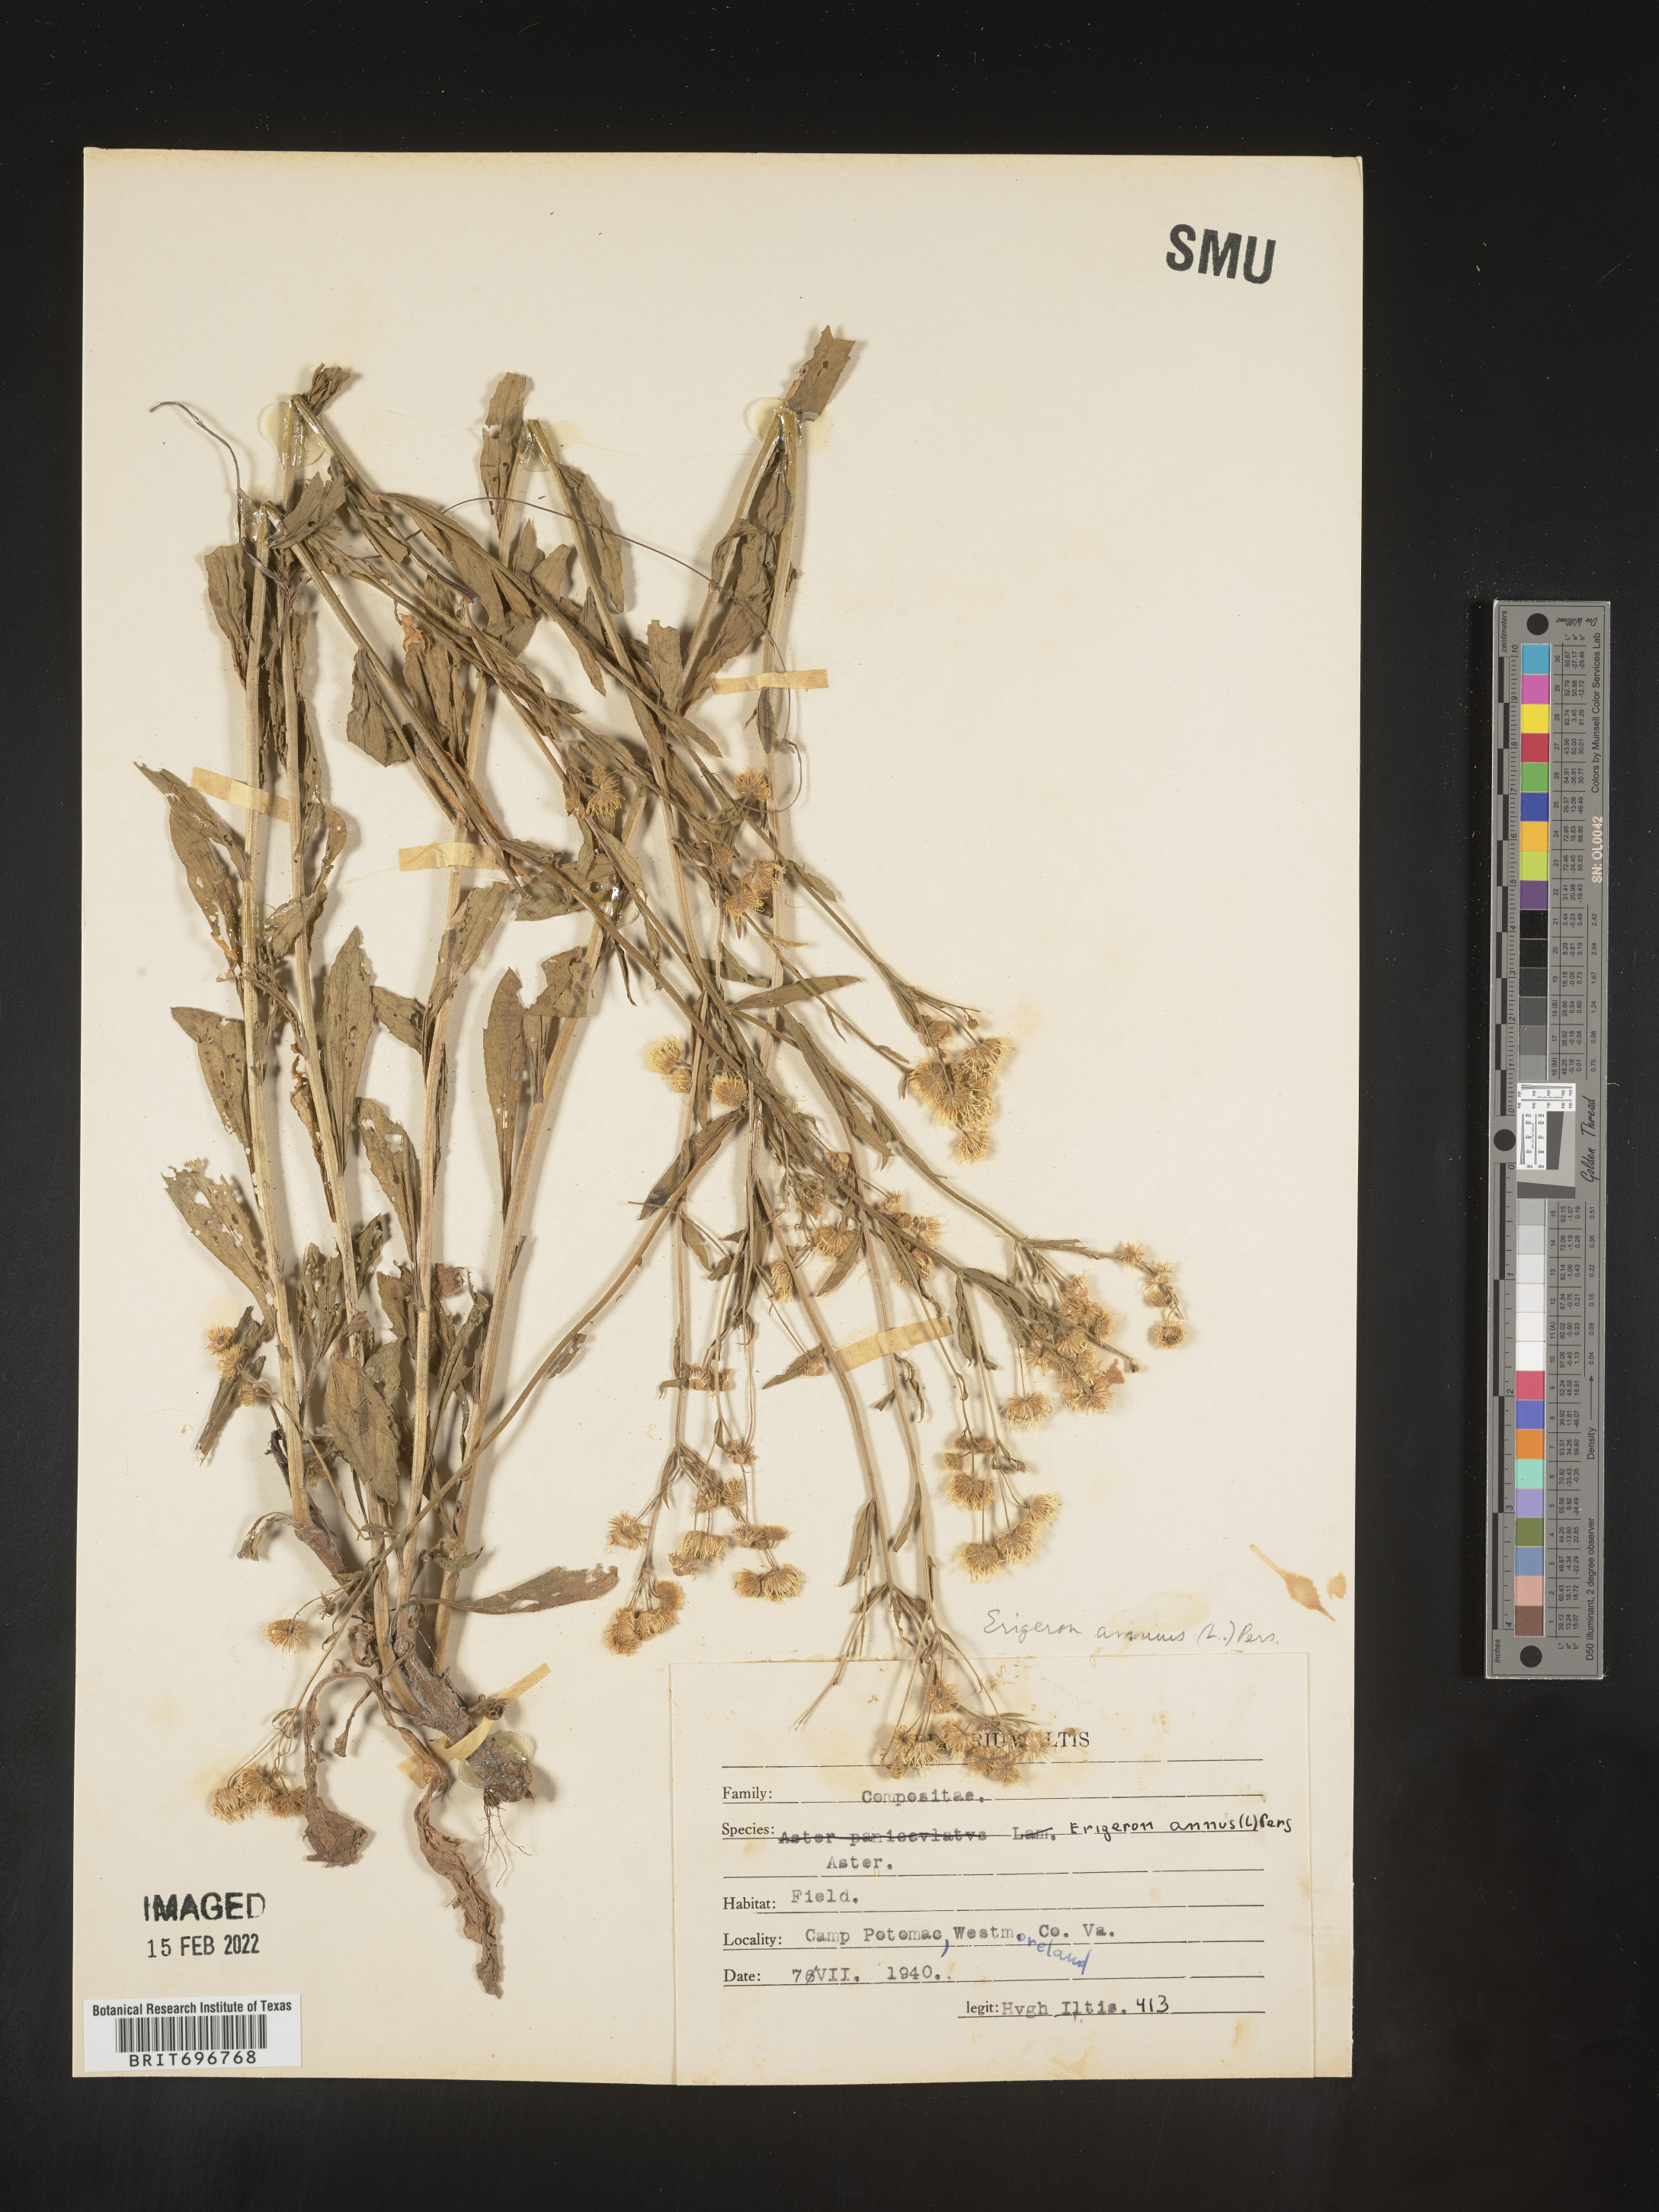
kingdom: Plantae
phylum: Tracheophyta
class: Magnoliopsida
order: Asterales
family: Asteraceae
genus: Erigeron
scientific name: Erigeron annuus
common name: Tall fleabane
